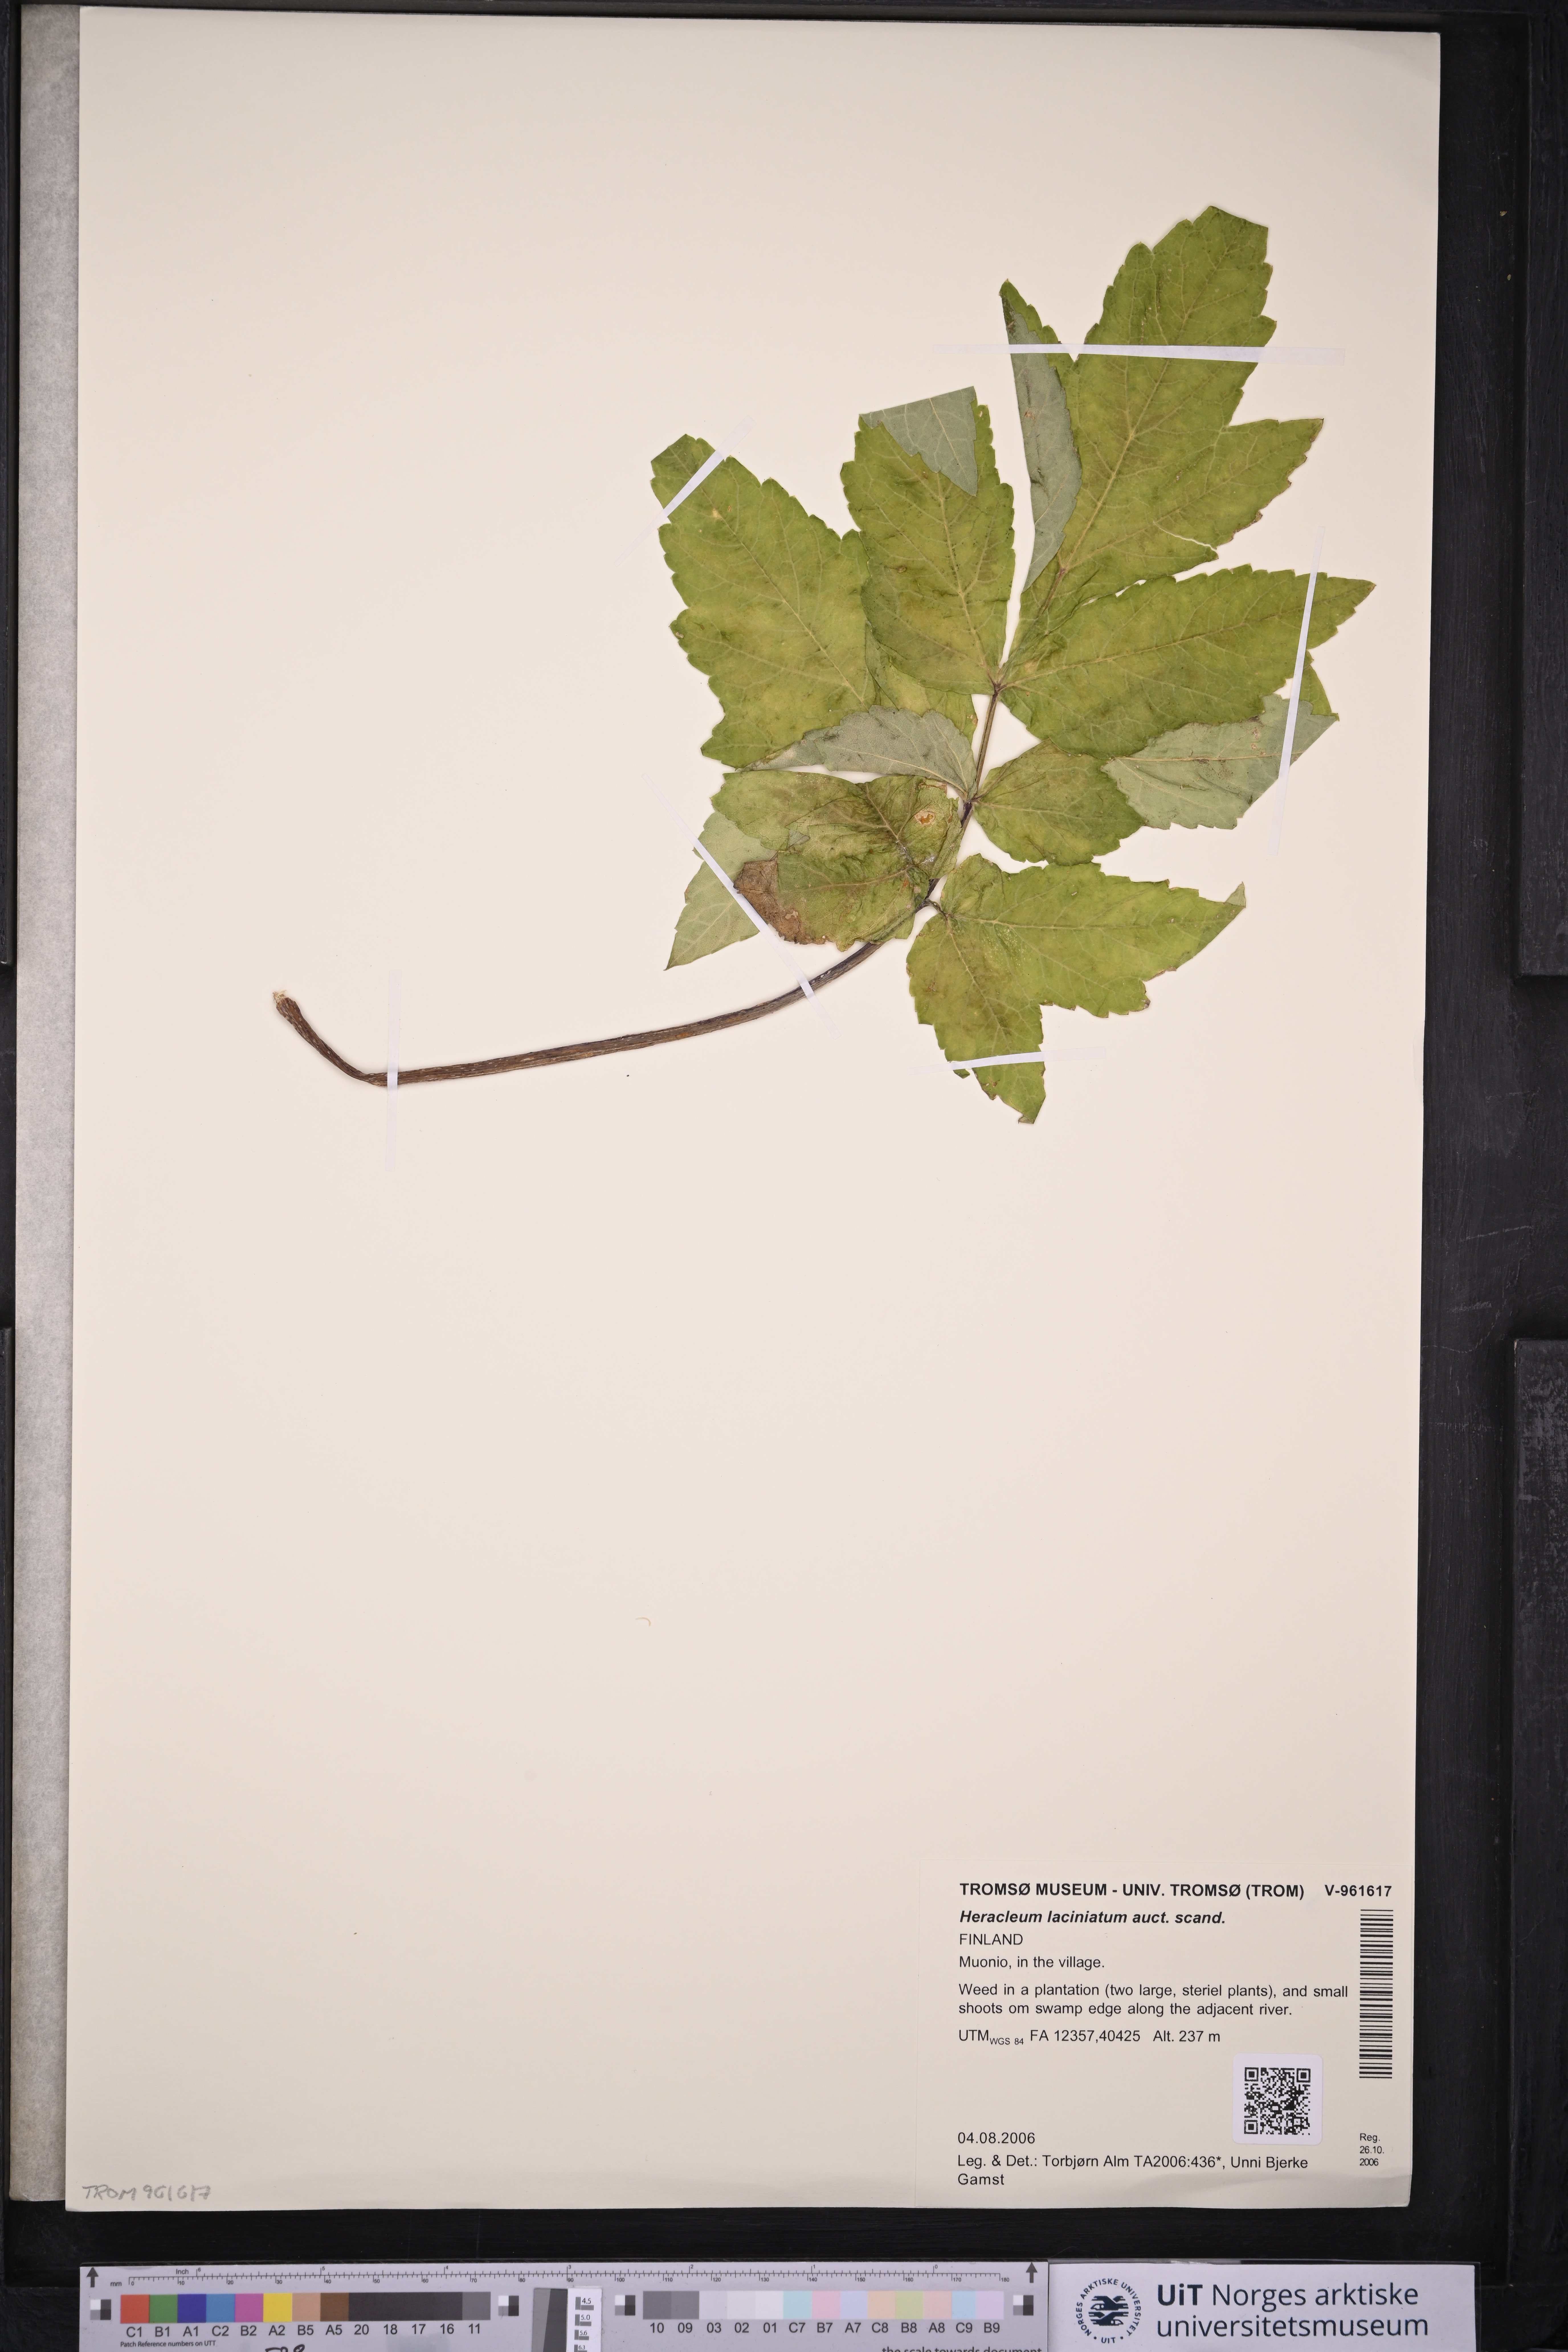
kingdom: Plantae
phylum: Tracheophyta
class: Magnoliopsida
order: Apiales
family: Apiaceae
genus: Heracleum
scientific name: Heracleum persicum
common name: Persian hogweed
